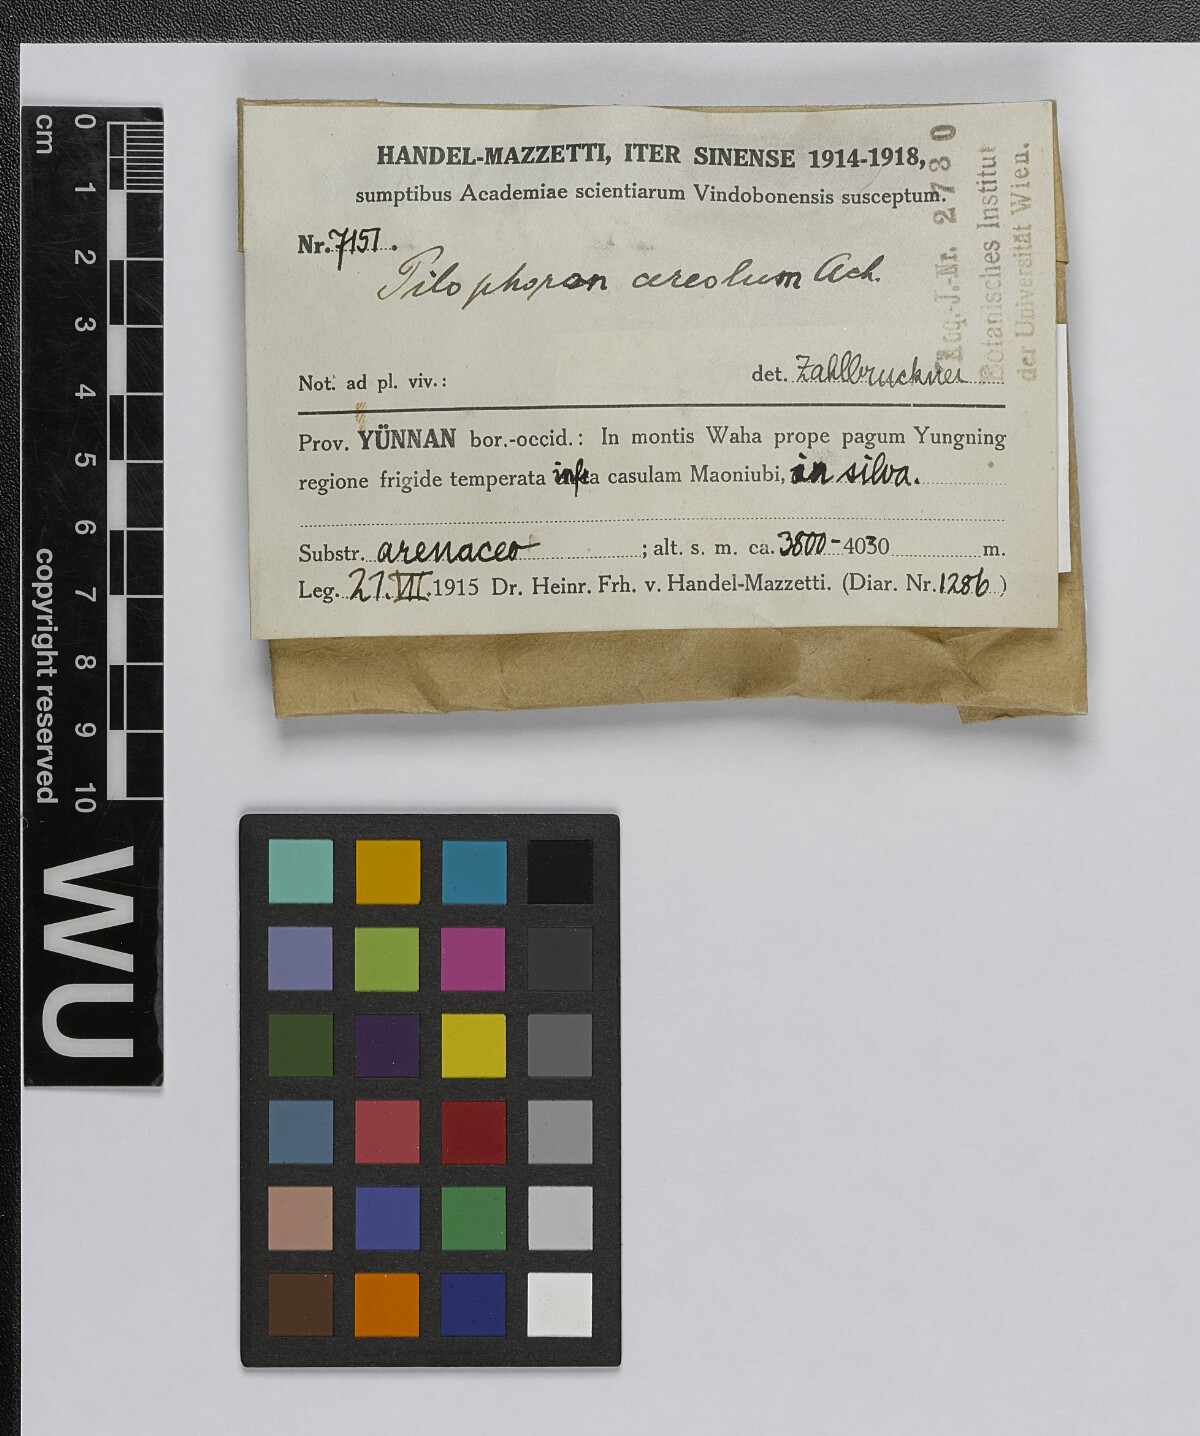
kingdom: Fungi
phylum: Ascomycota
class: Lecanoromycetes
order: Lecanorales
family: Cladoniaceae
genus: Pilophorus
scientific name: Pilophorus cereolus
